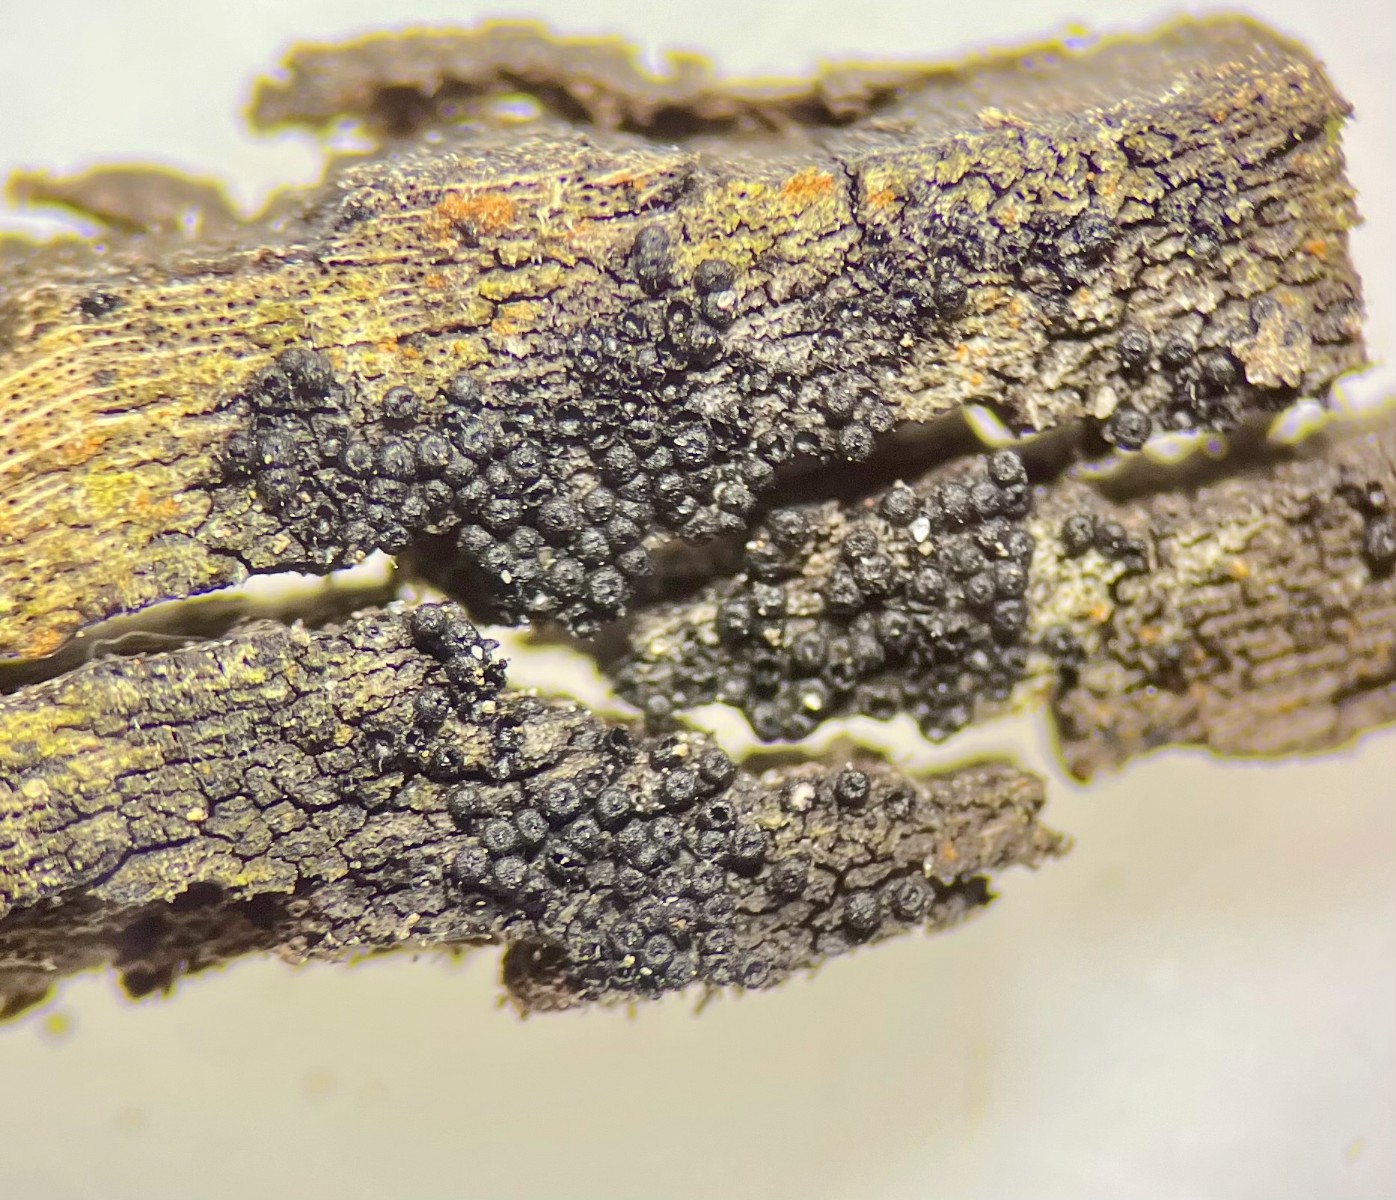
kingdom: Fungi
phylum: Ascomycota
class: Sordariomycetes
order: Hypocreales
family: Niessliaceae
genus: Melanopsamma
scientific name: Melanopsamma pomiformis
